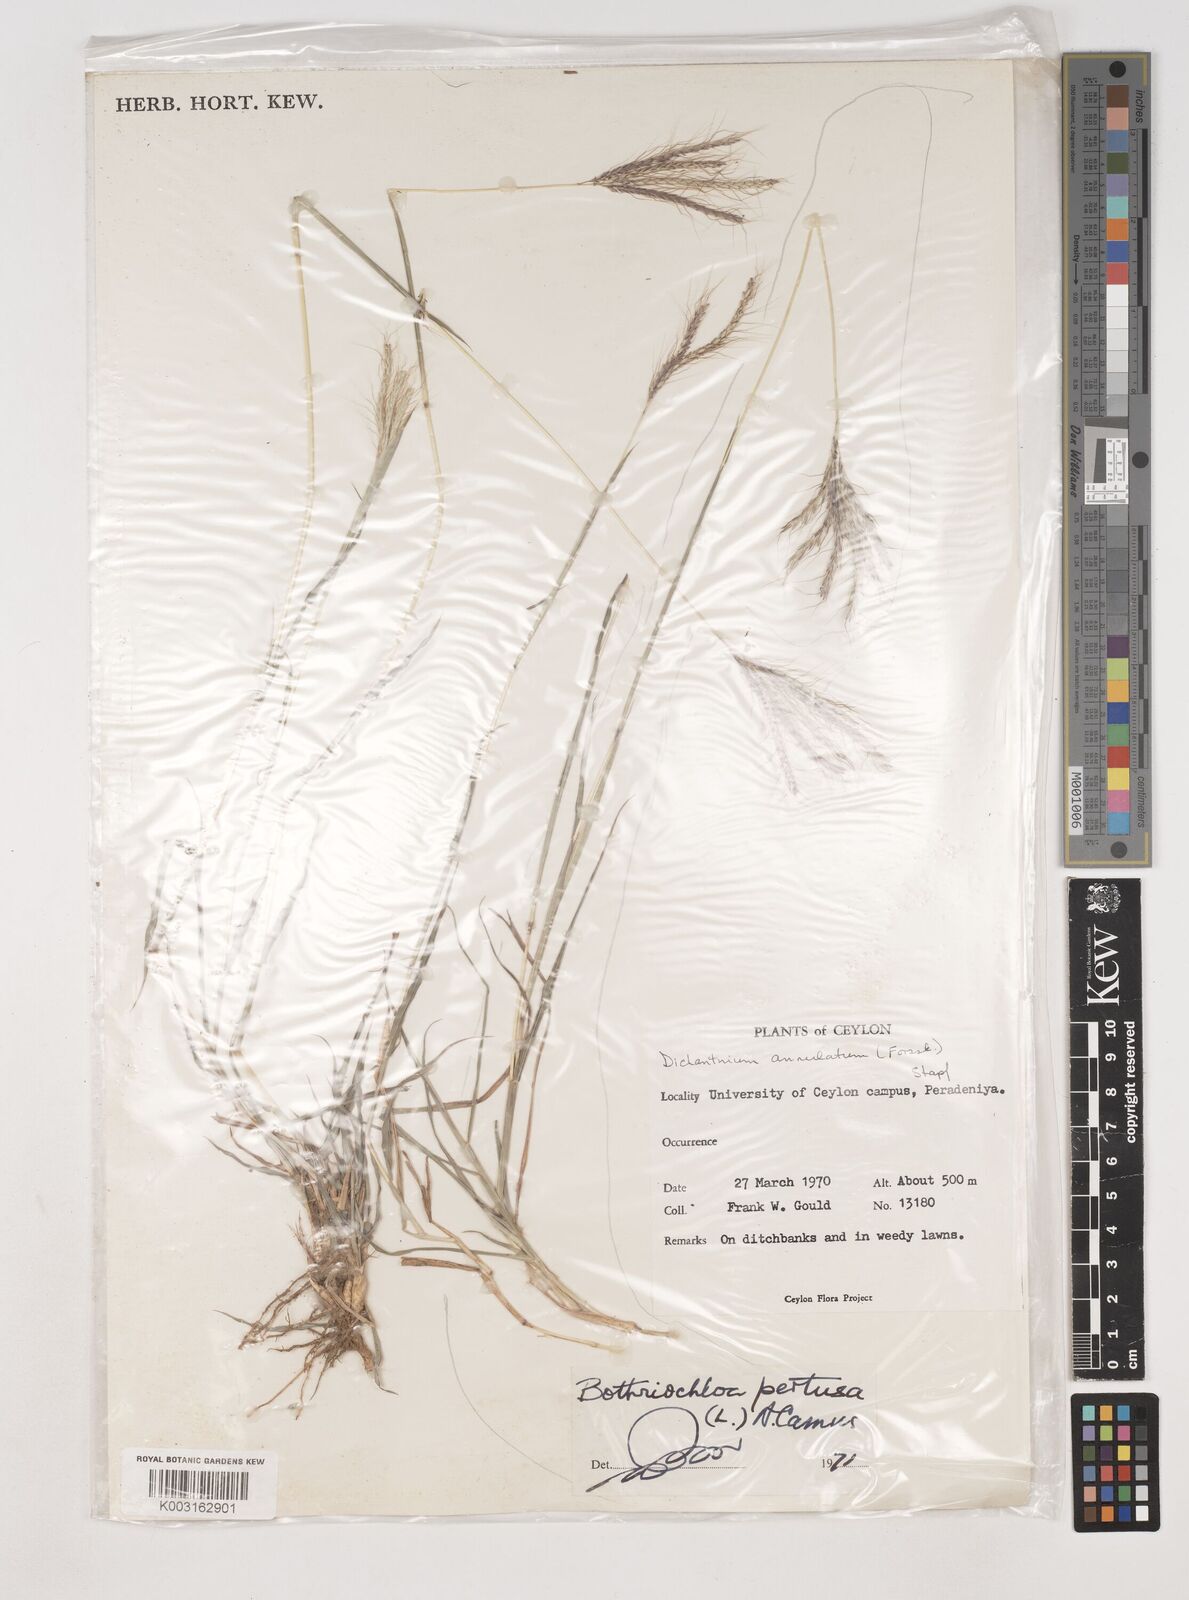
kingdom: Plantae
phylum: Tracheophyta
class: Liliopsida
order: Poales
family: Poaceae
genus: Dichanthium
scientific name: Dichanthium annulatum
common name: Kleberg's bluestem
